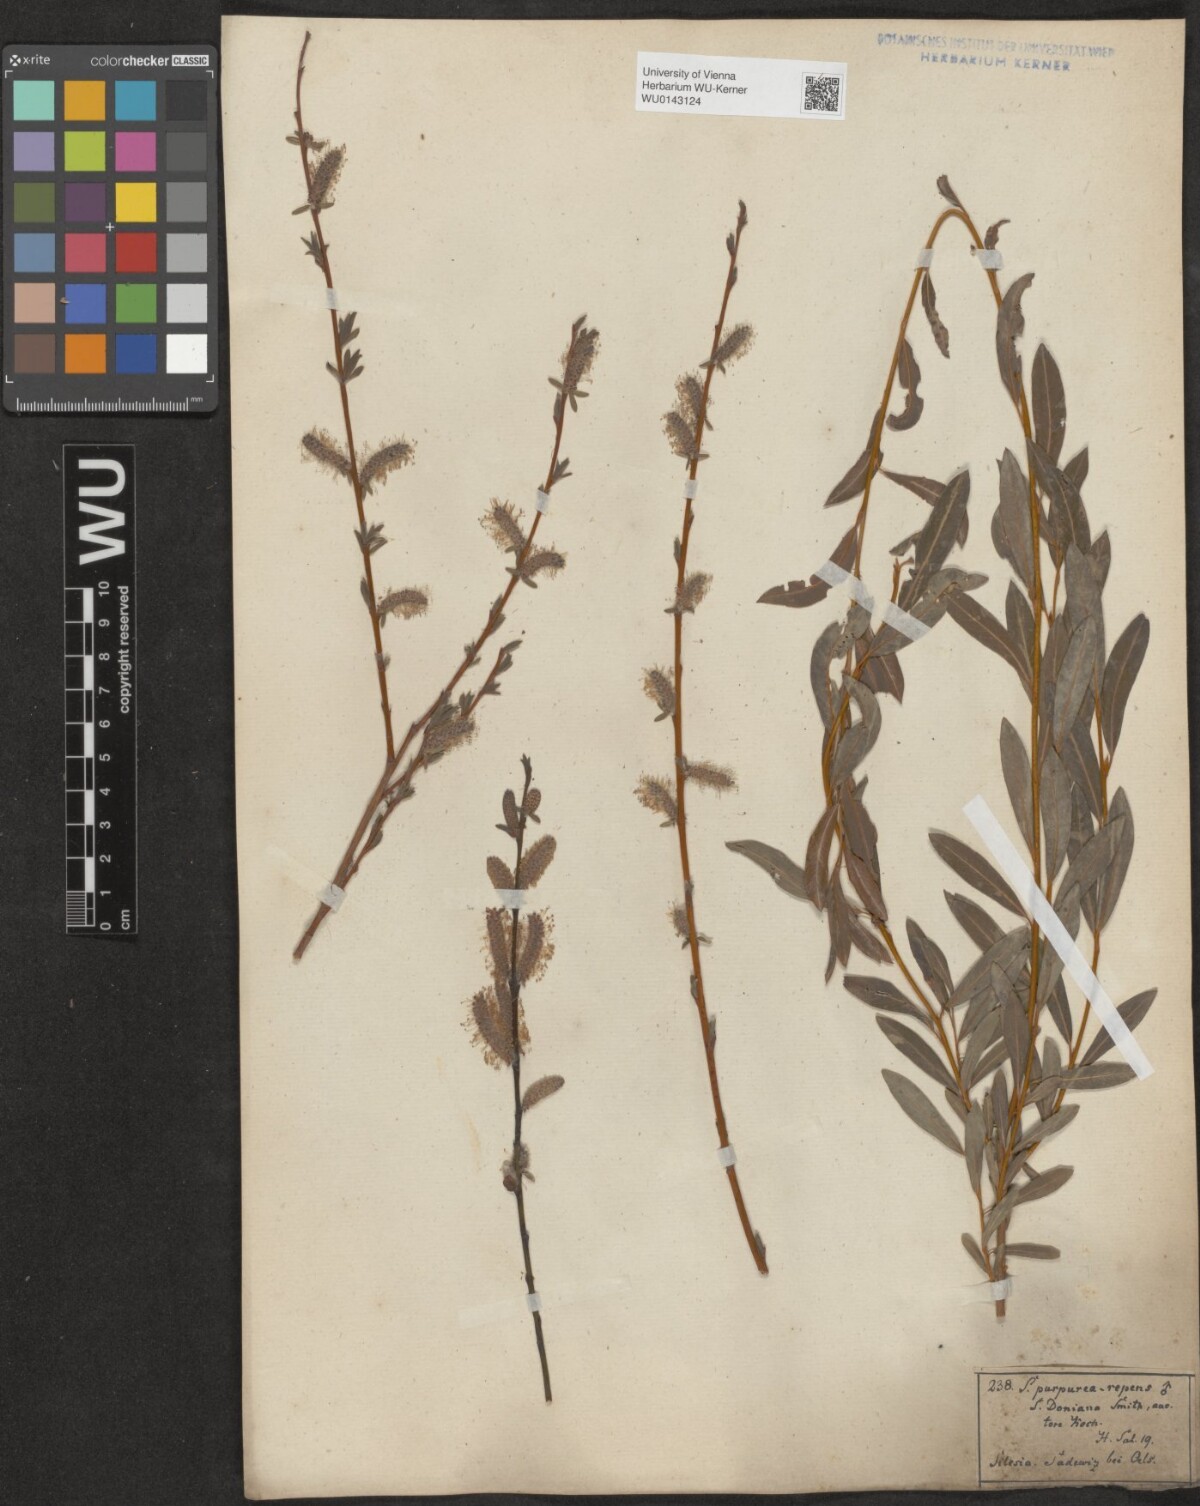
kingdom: Plantae
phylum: Tracheophyta
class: Magnoliopsida
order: Malpighiales
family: Salicaceae
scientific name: Salicaceae
